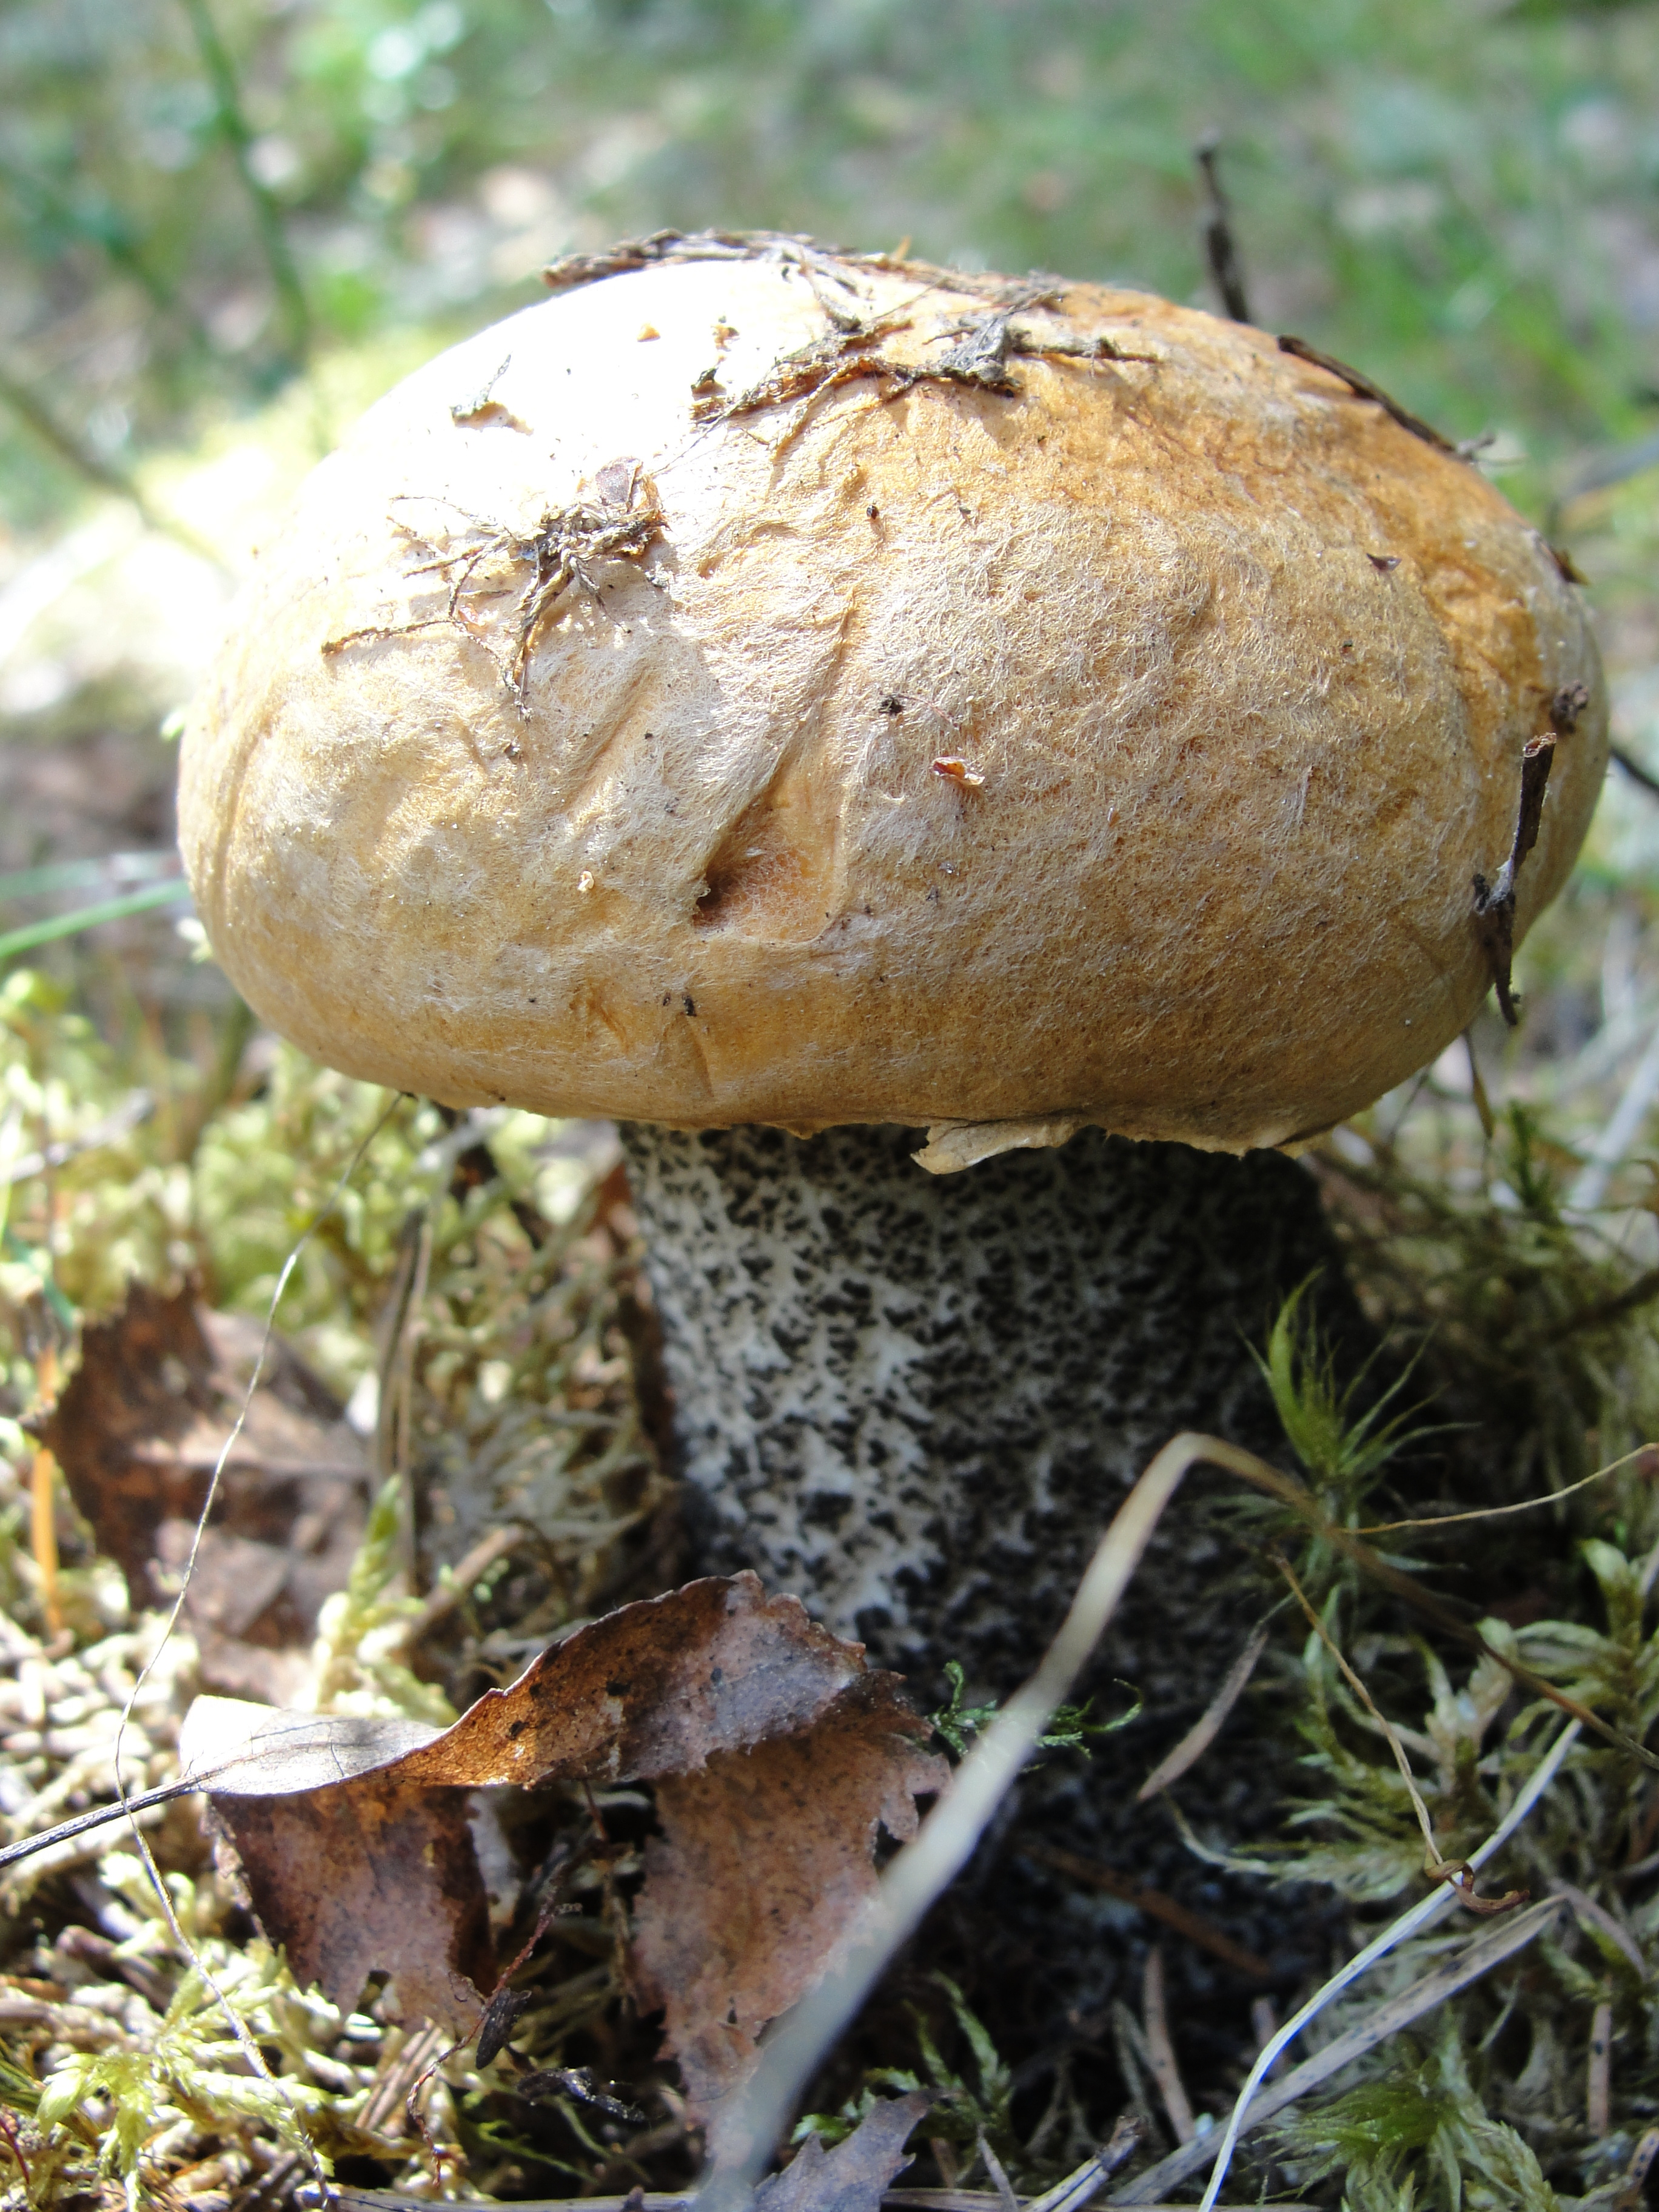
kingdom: Fungi
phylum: Basidiomycota
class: Agaricomycetes
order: Boletales
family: Boletaceae
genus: Leccinum
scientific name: Leccinum versipelle
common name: Orange birch bolete
